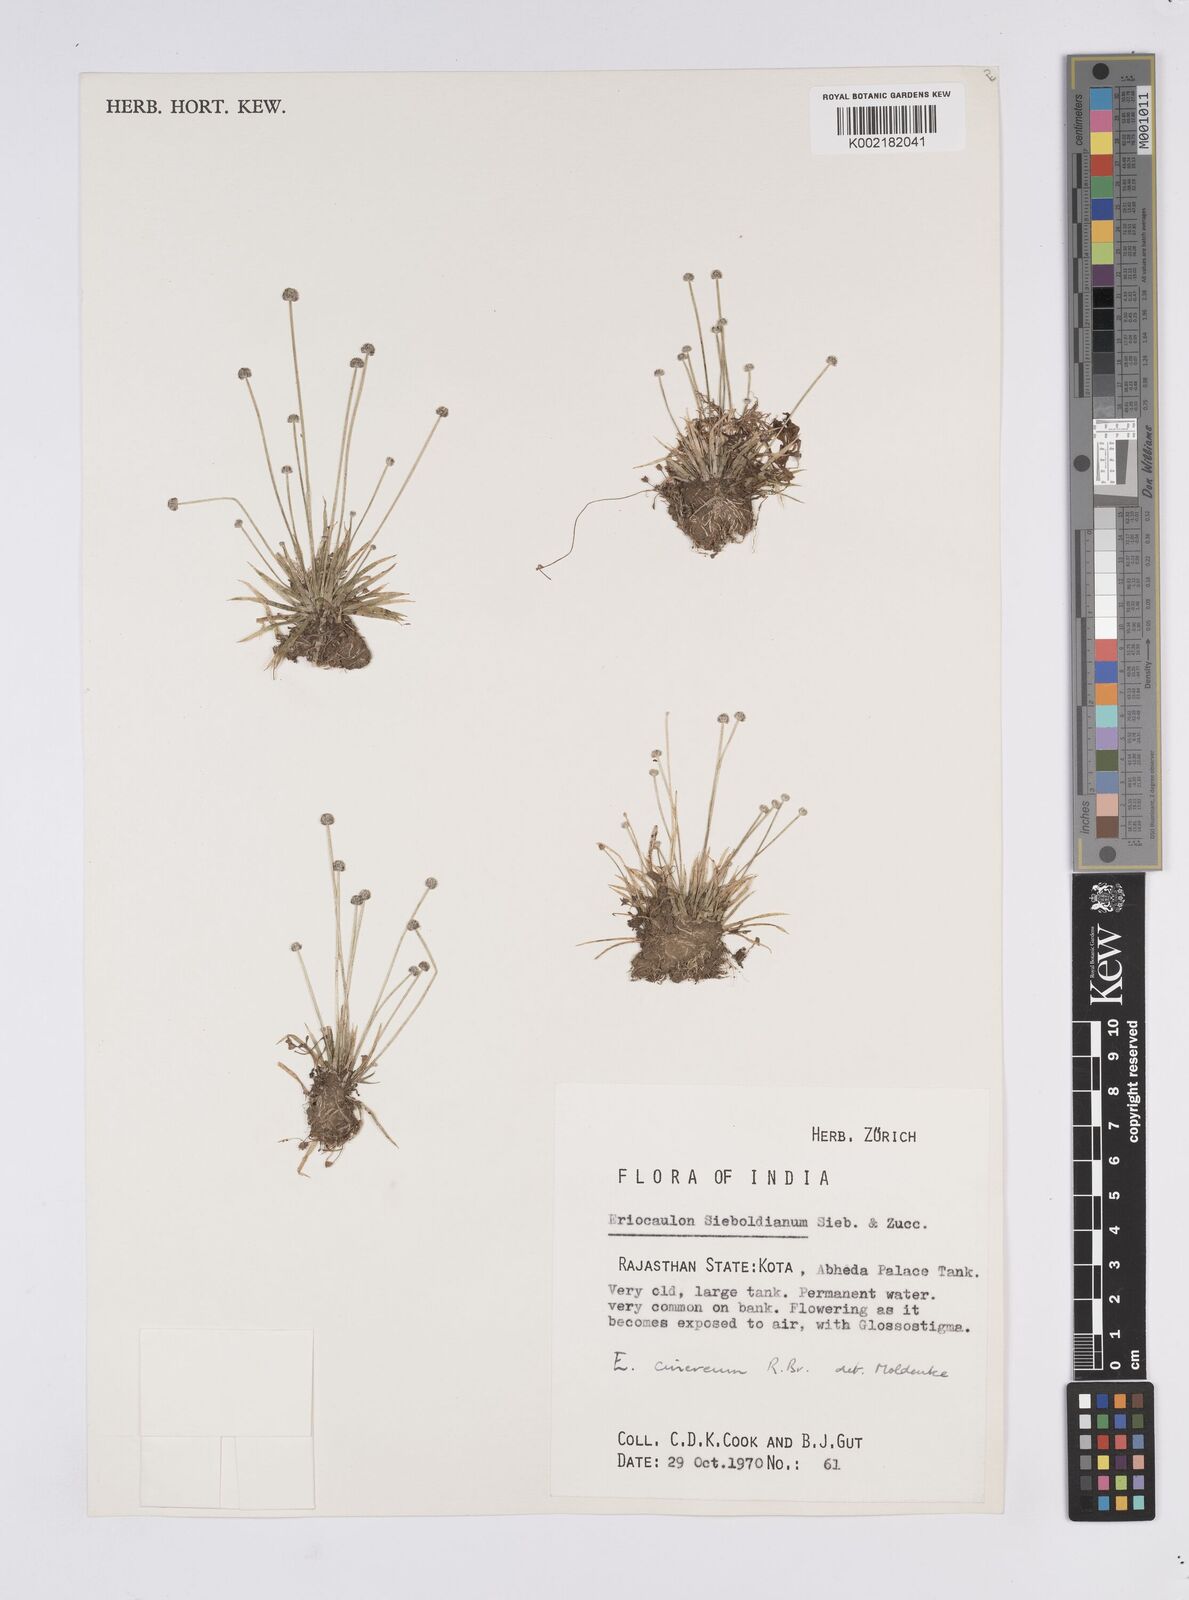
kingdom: Plantae
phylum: Tracheophyta
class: Liliopsida
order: Poales
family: Eriocaulaceae
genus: Eriocaulon
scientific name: Eriocaulon cinereum
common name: Ashy pipewort
